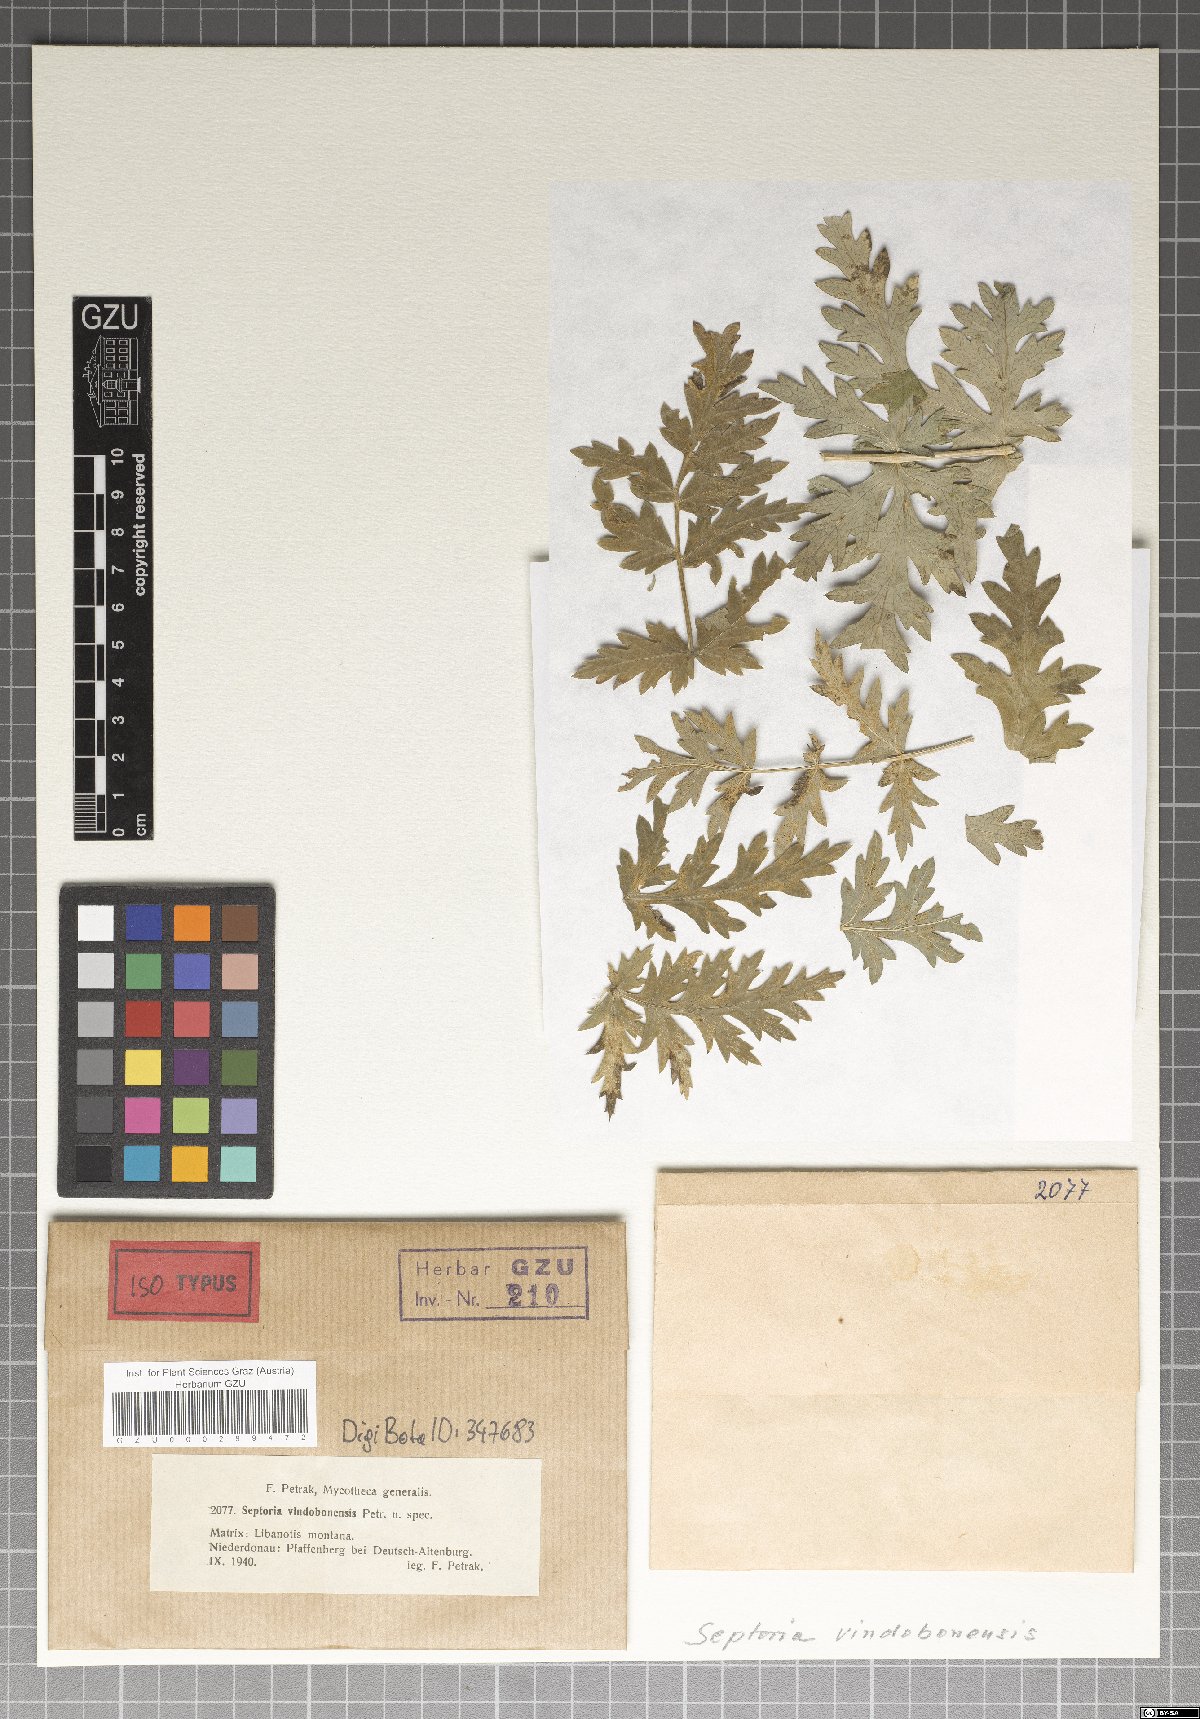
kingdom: Fungi
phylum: Ascomycota
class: Dothideomycetes
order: Mycosphaerellales
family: Mycosphaerellaceae
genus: Septoria
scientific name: Septoria
